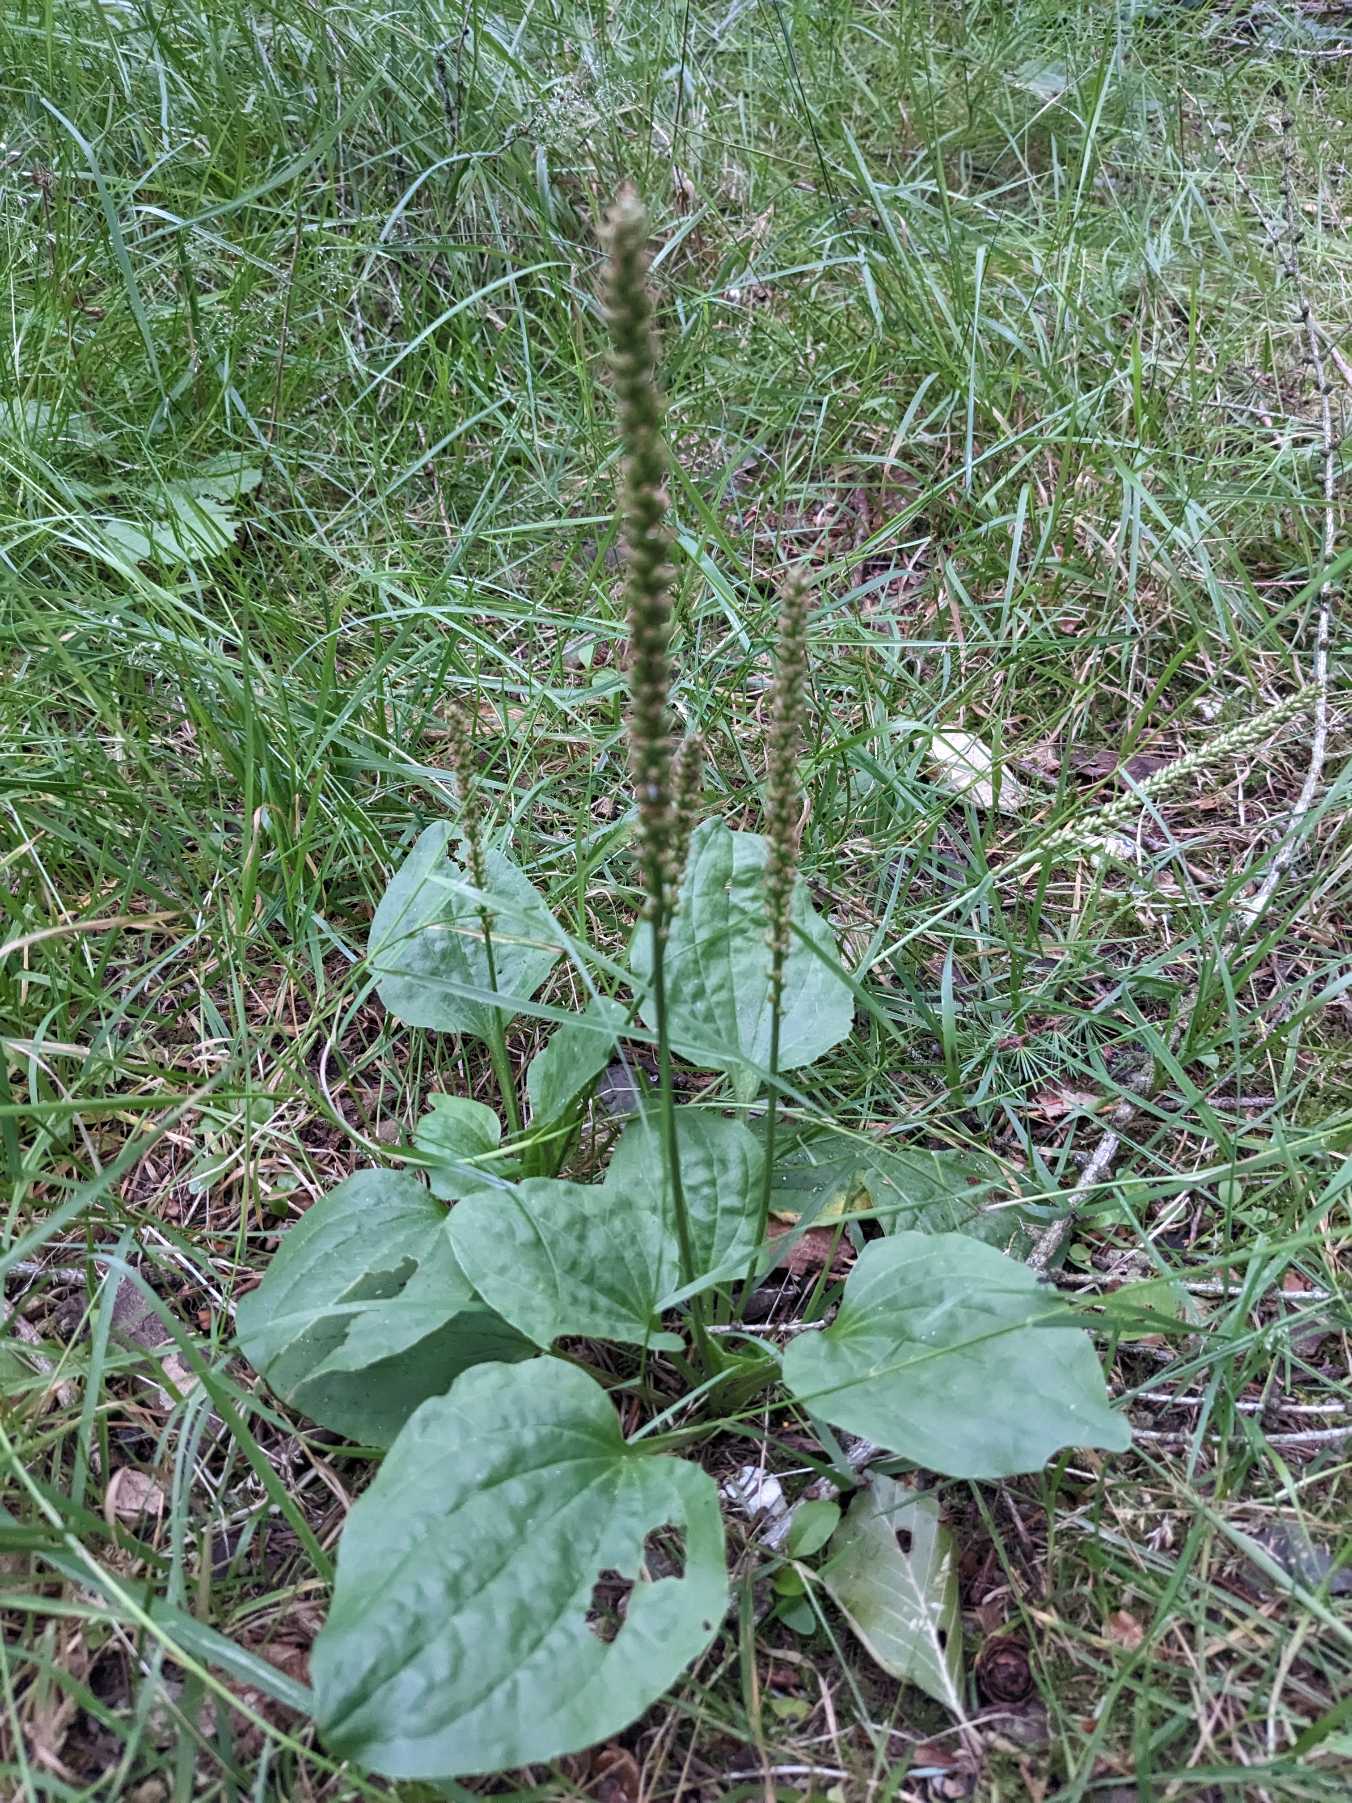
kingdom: Plantae
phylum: Tracheophyta
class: Magnoliopsida
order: Lamiales
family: Plantaginaceae
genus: Plantago
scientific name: Plantago major
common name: Glat vejbred
